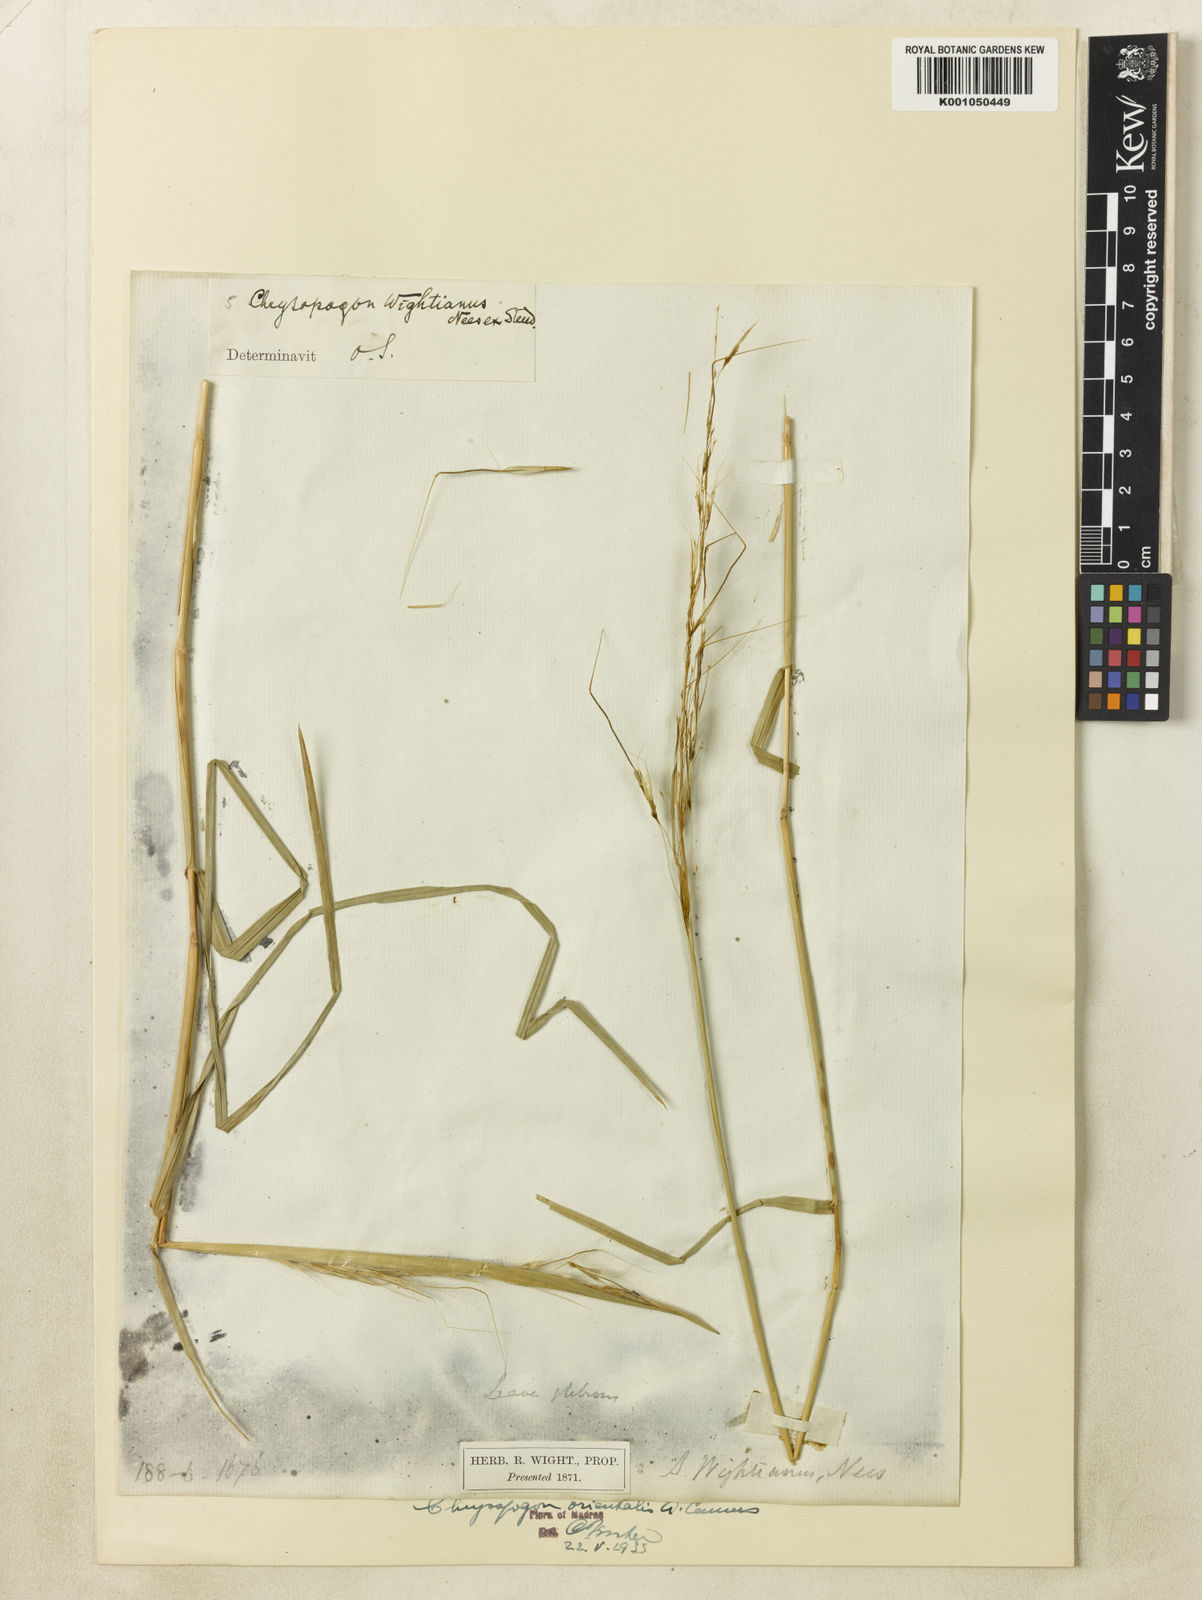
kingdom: Plantae
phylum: Tracheophyta
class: Liliopsida
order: Poales
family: Poaceae
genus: Chrysopogon
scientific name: Chrysopogon orientalis
